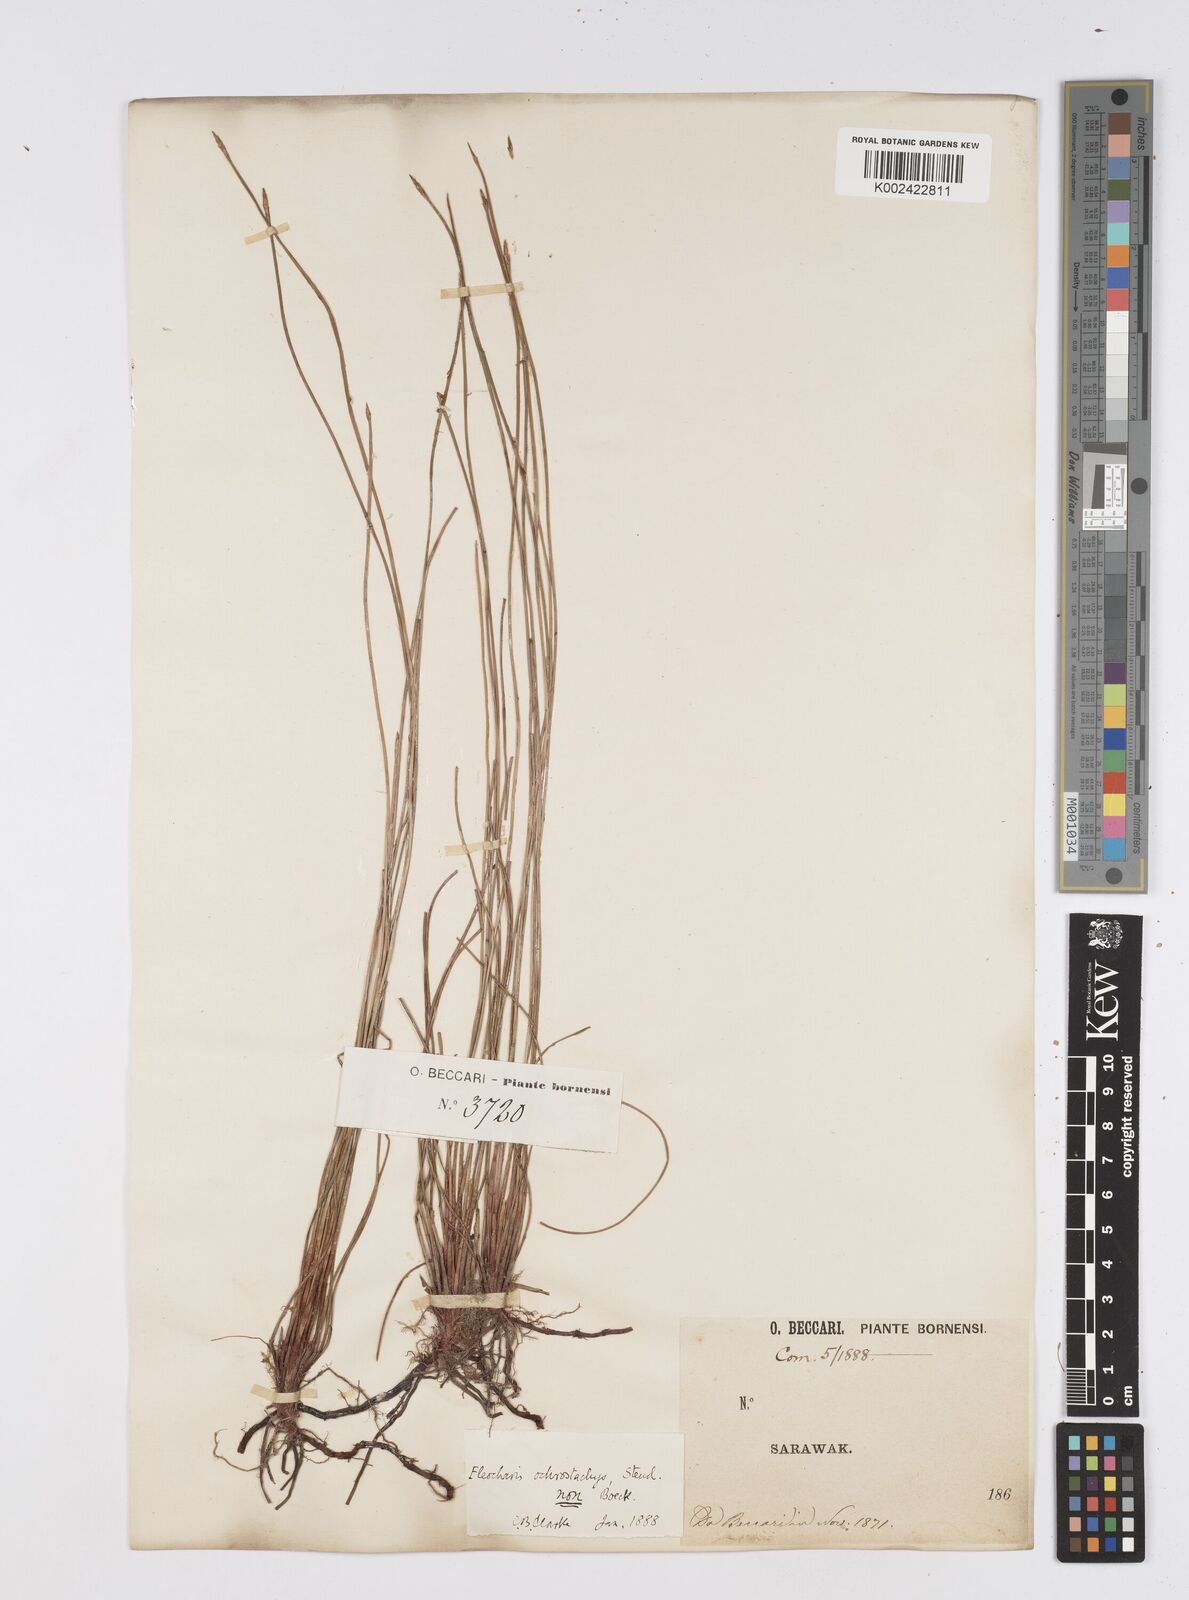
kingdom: Plantae
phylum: Tracheophyta
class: Liliopsida
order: Poales
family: Cyperaceae
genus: Eleocharis
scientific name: Eleocharis ochrostachys
